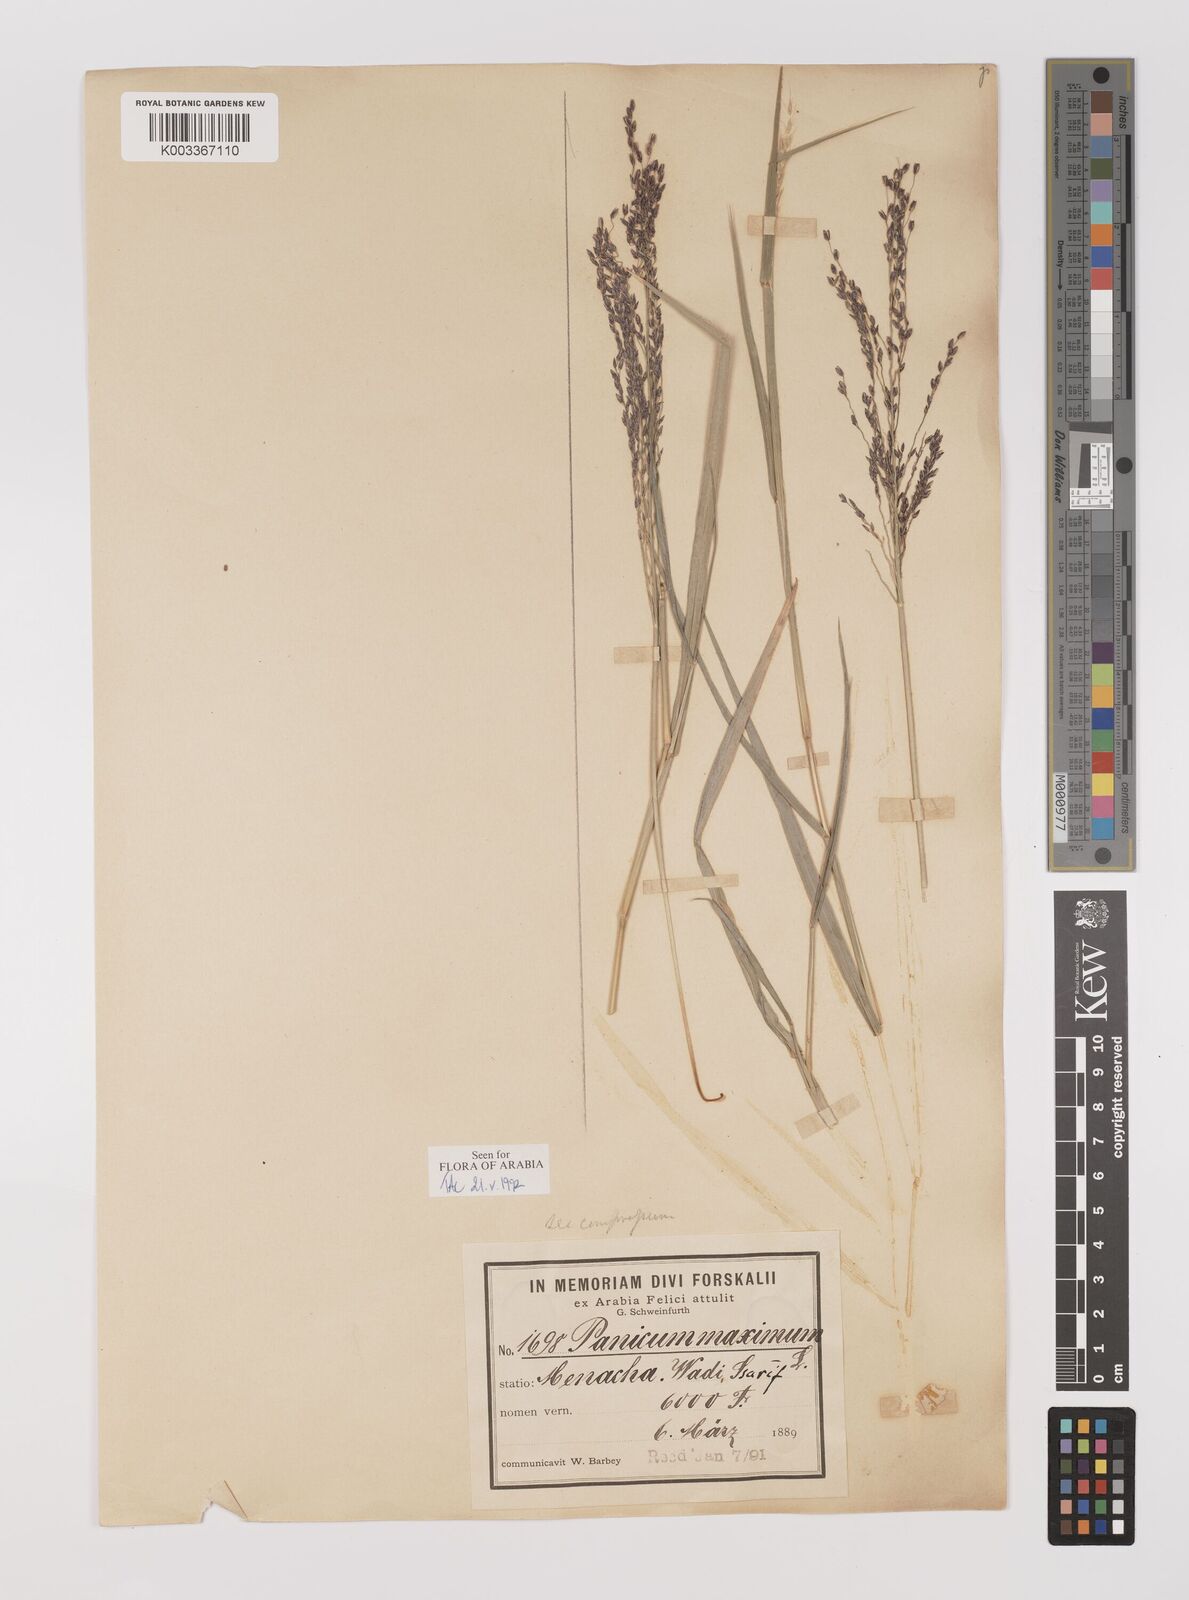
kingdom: Plantae
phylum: Tracheophyta
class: Liliopsida
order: Poales
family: Poaceae
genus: Megathyrsus
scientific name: Megathyrsus maximus
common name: Guineagrass
